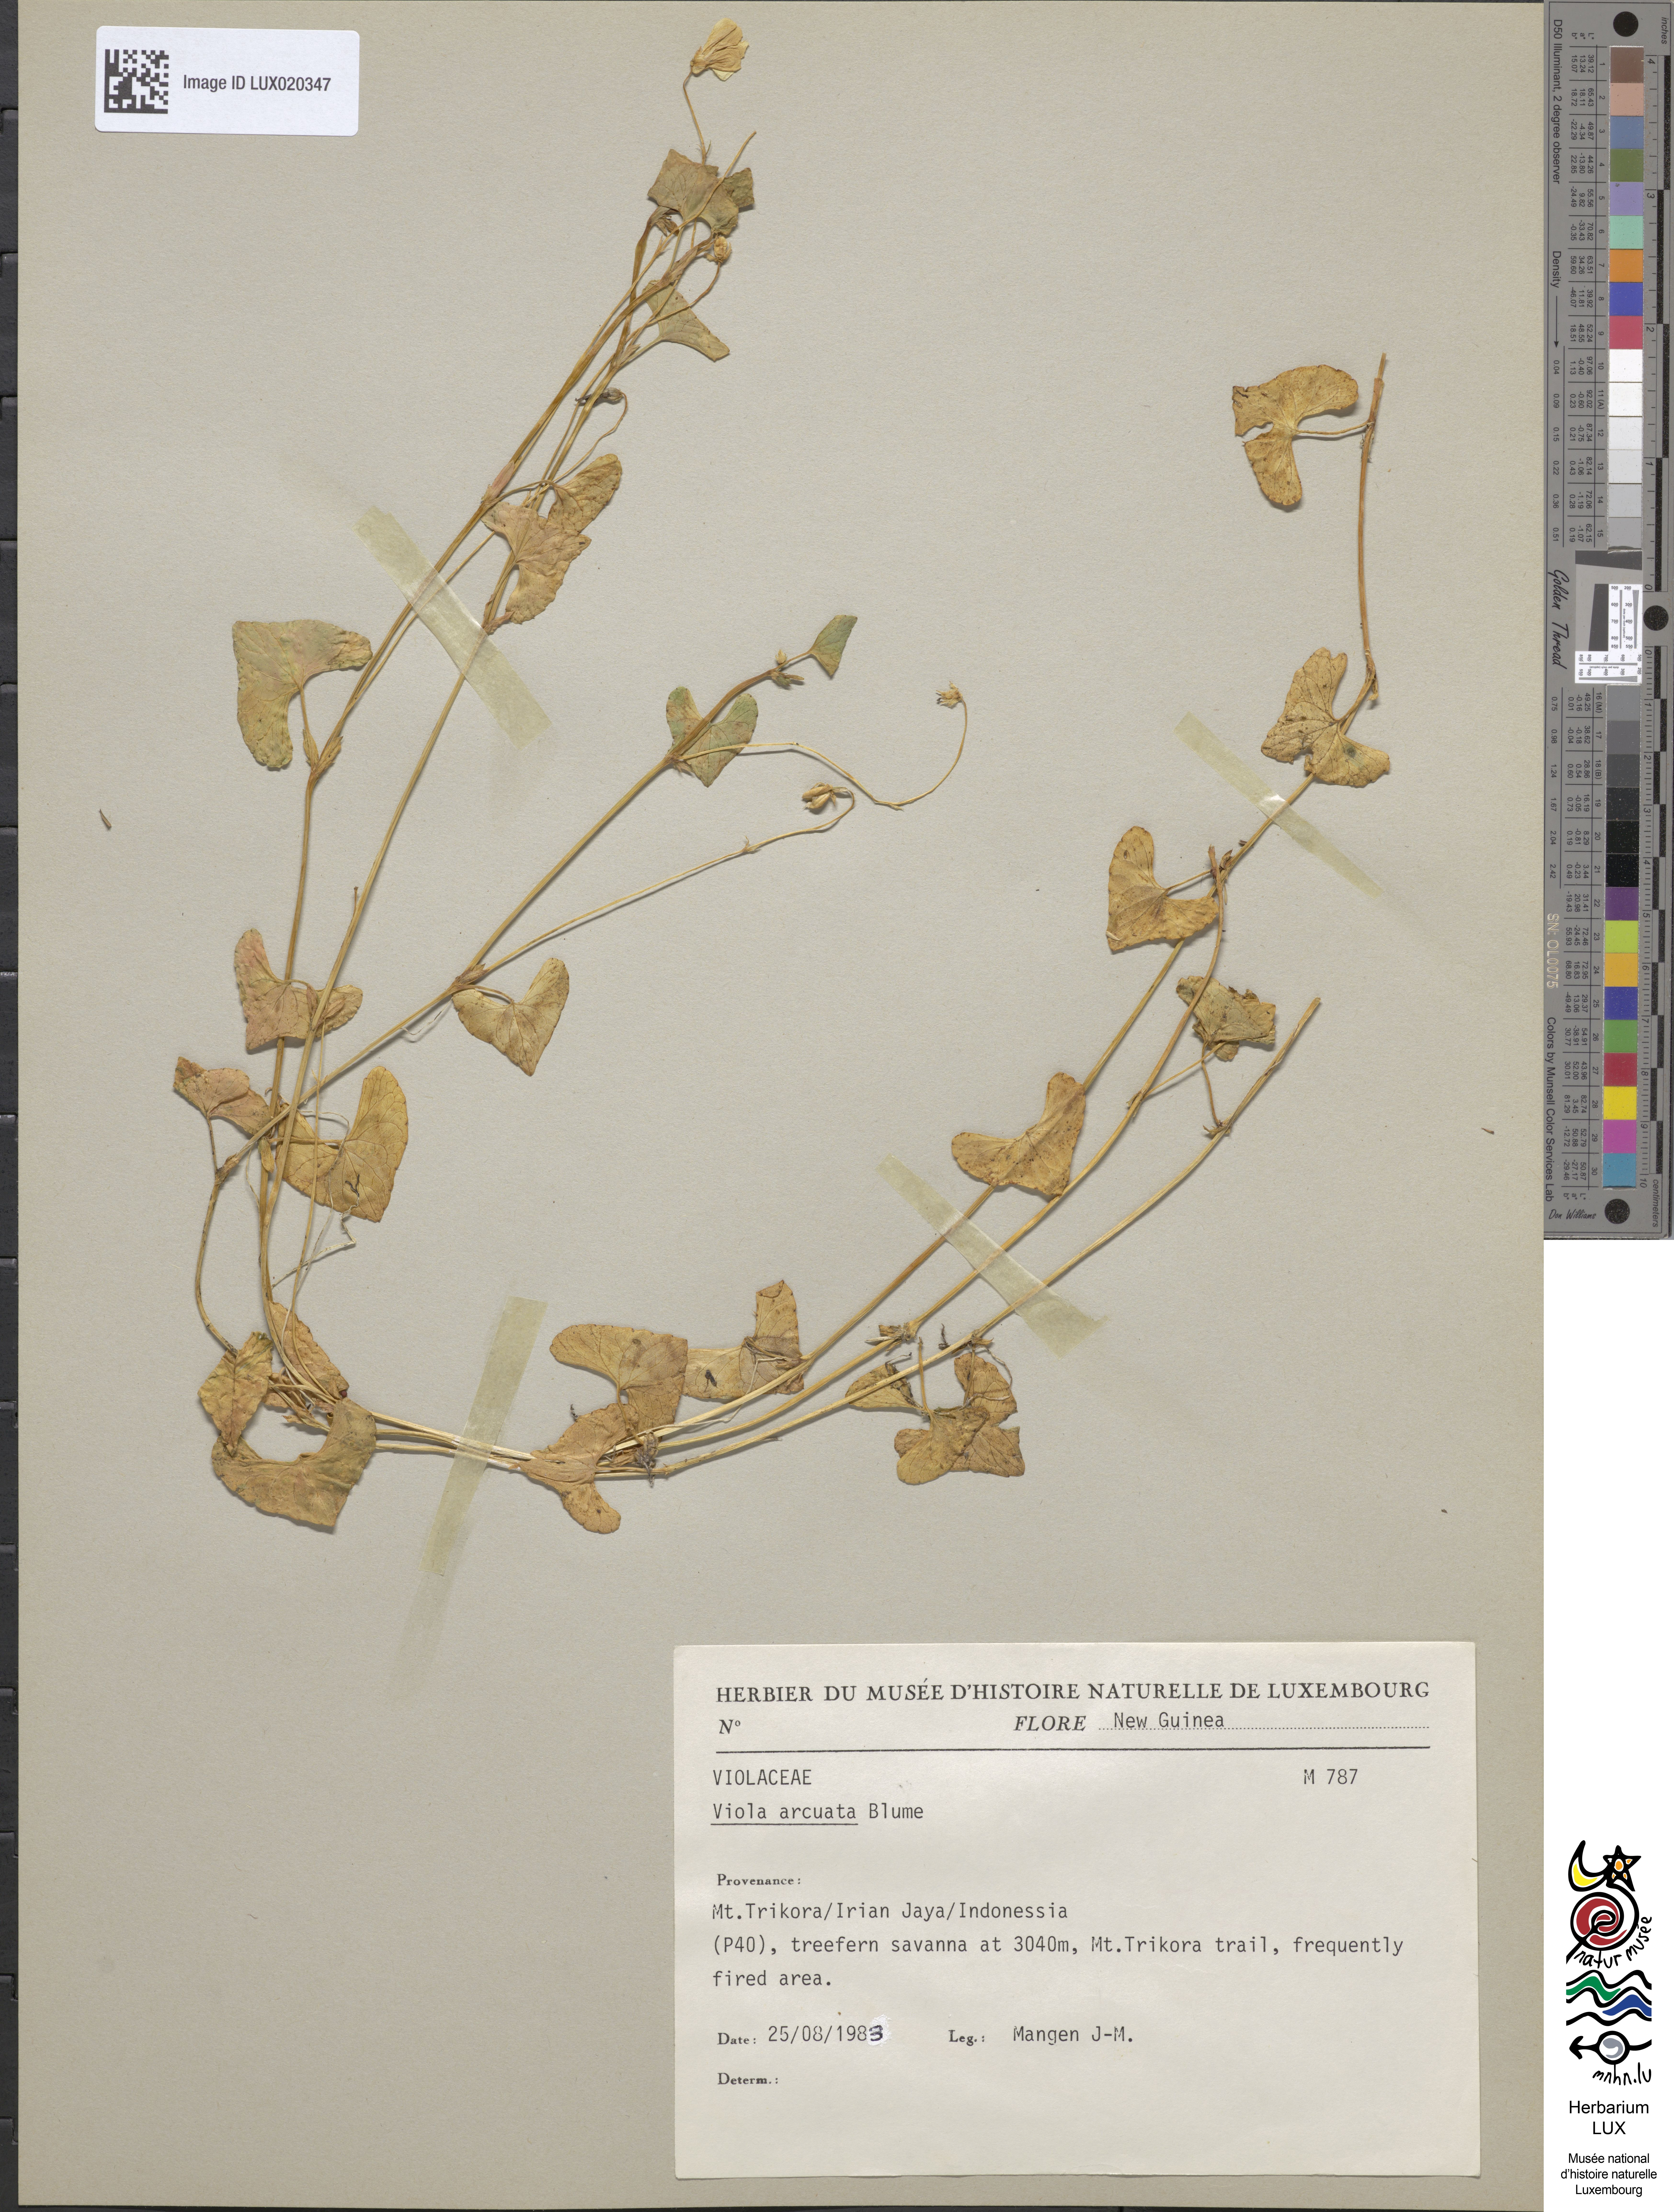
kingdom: Plantae
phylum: Tracheophyta
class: Magnoliopsida
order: Malpighiales
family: Violaceae
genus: Viola
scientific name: Viola hamiltoniana
